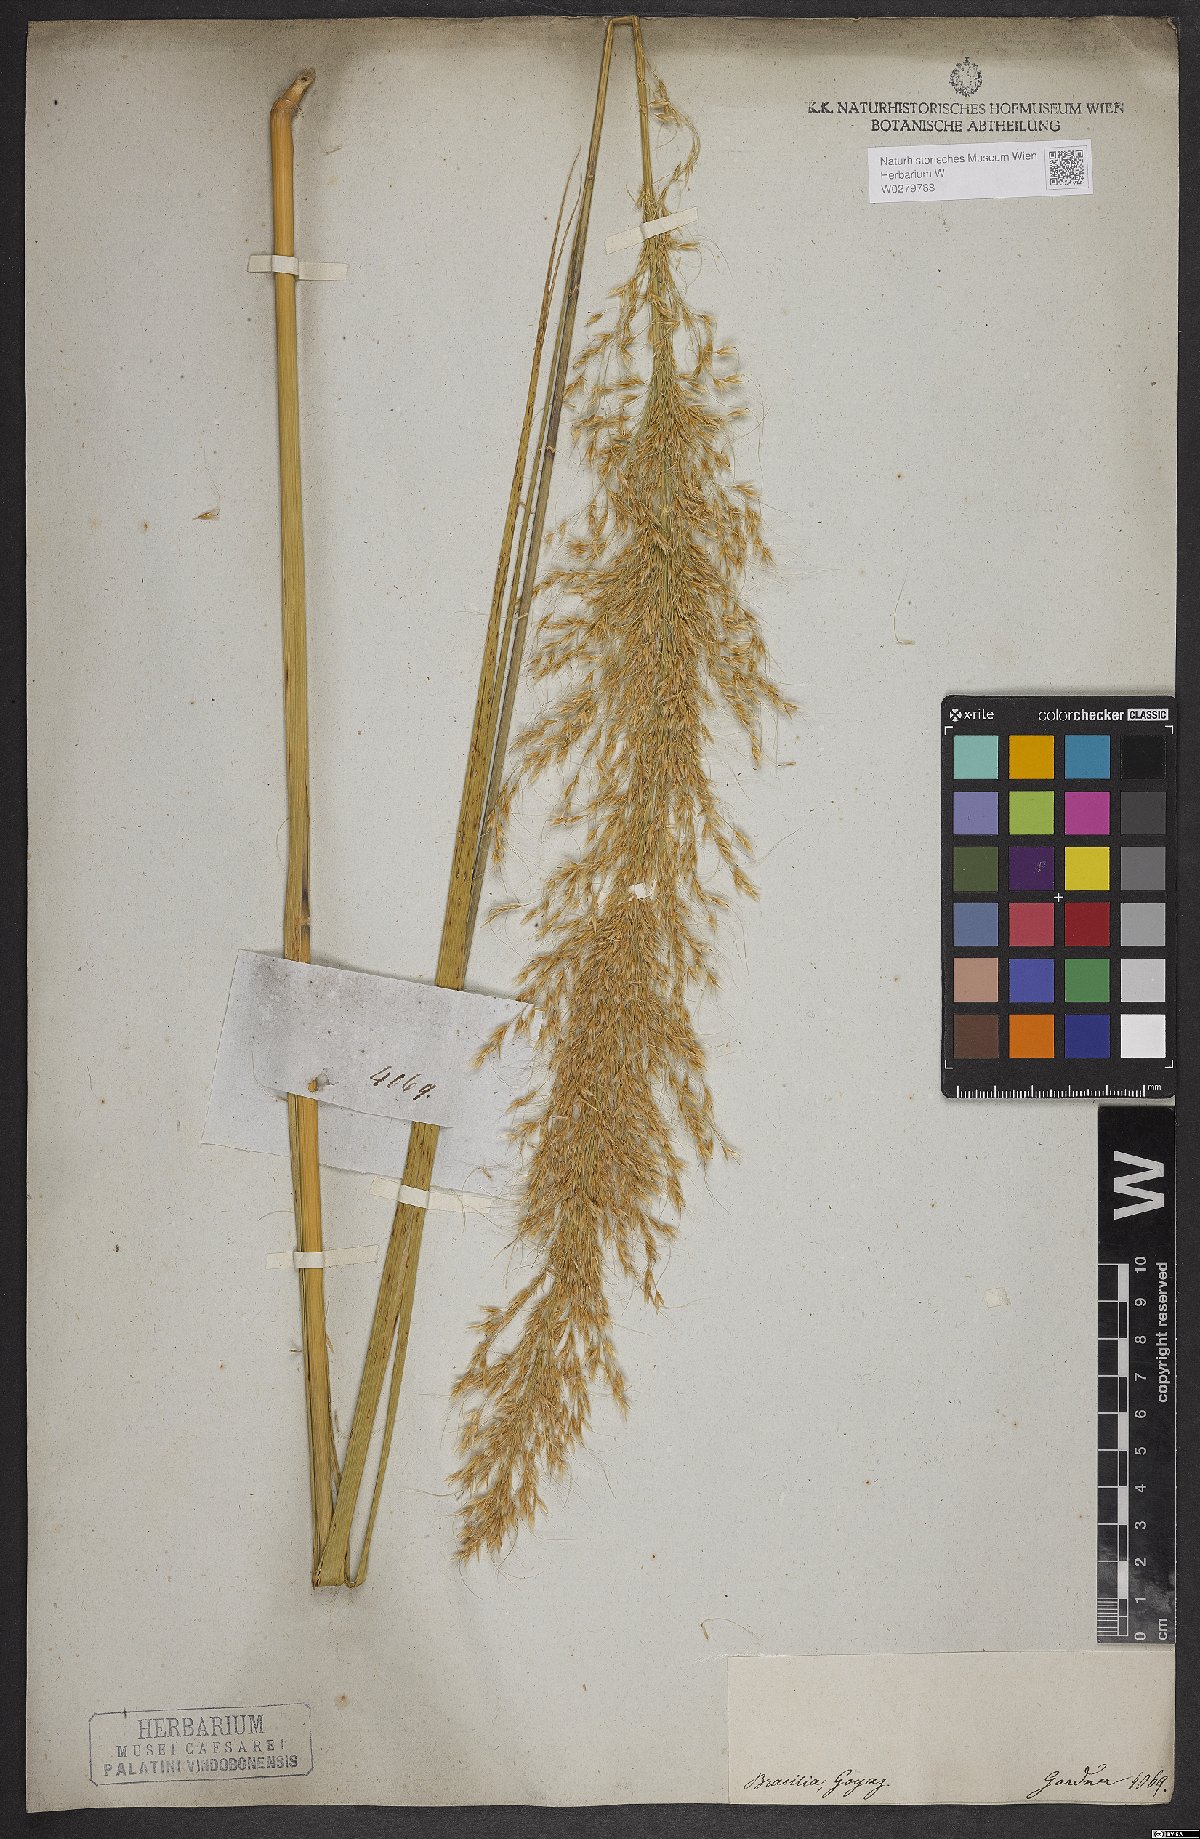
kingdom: Plantae
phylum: Tracheophyta
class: Liliopsida
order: Poales
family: Poaceae
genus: Loudetia
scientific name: Loudetia flammida
